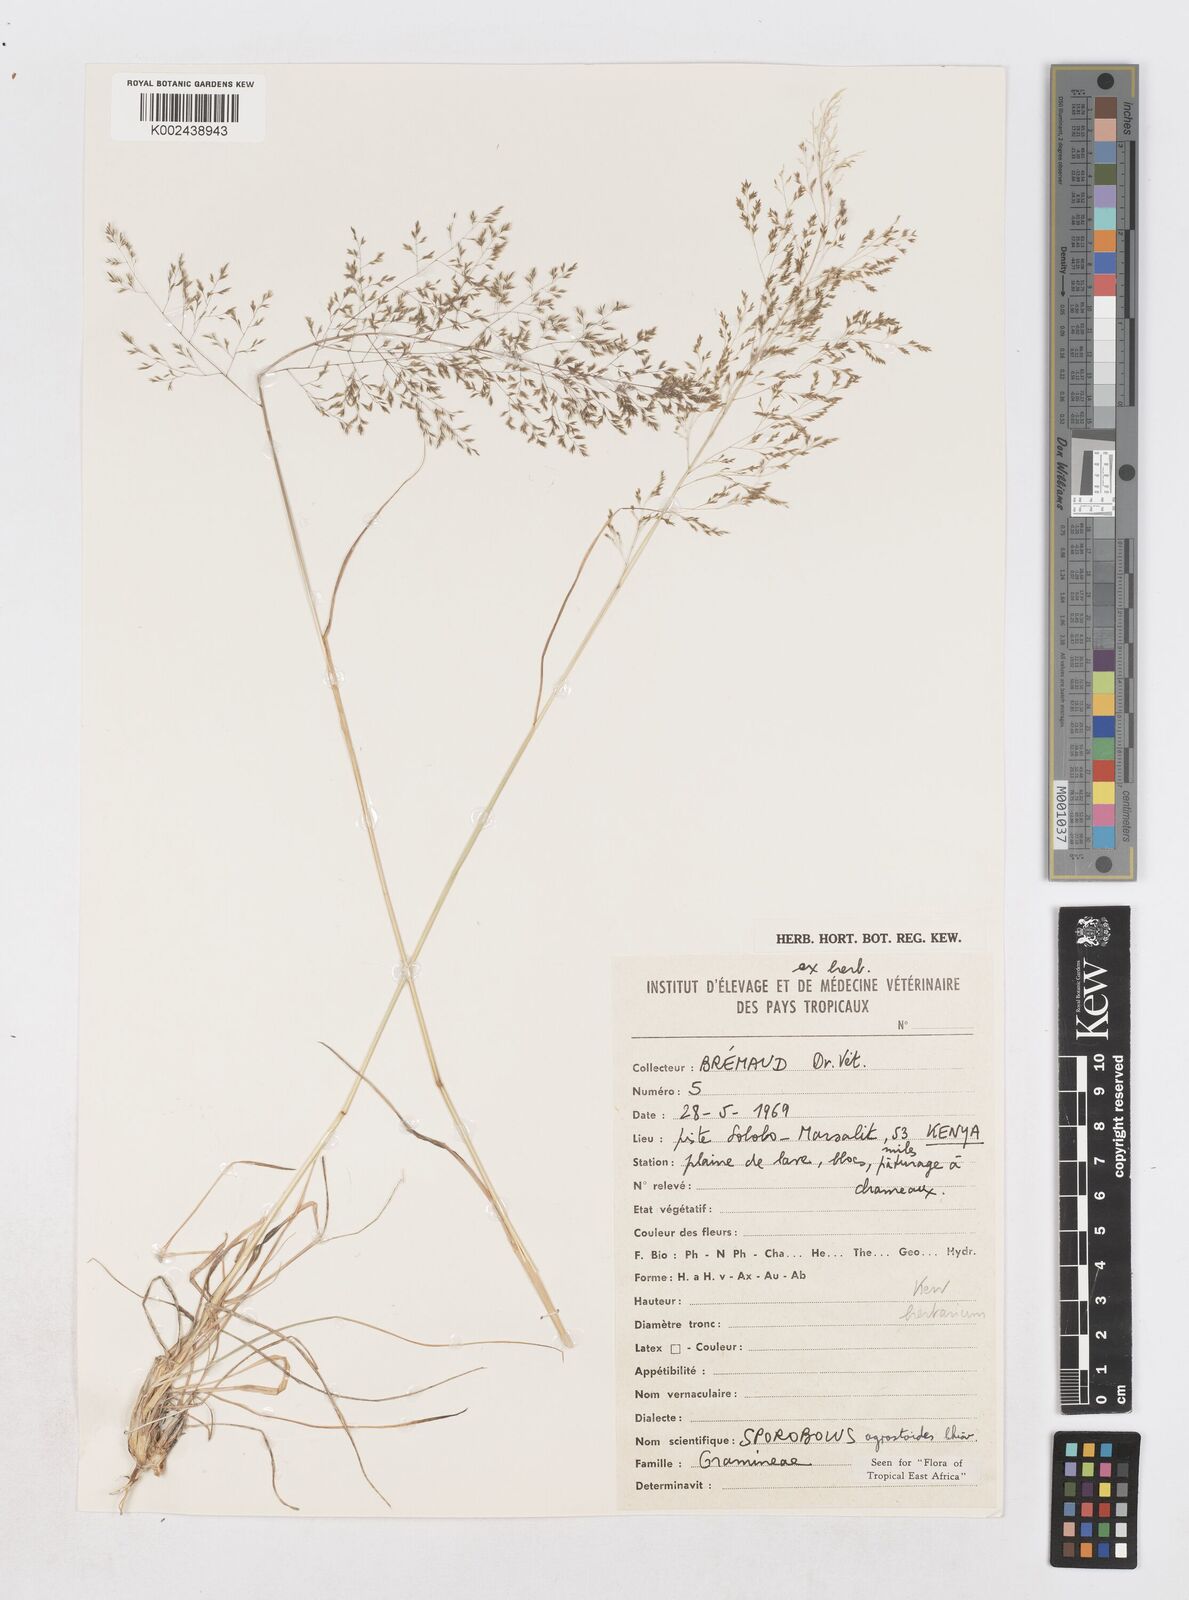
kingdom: Plantae
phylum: Tracheophyta
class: Liliopsida
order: Poales
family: Poaceae
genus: Sporobolus
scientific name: Sporobolus nervosus
